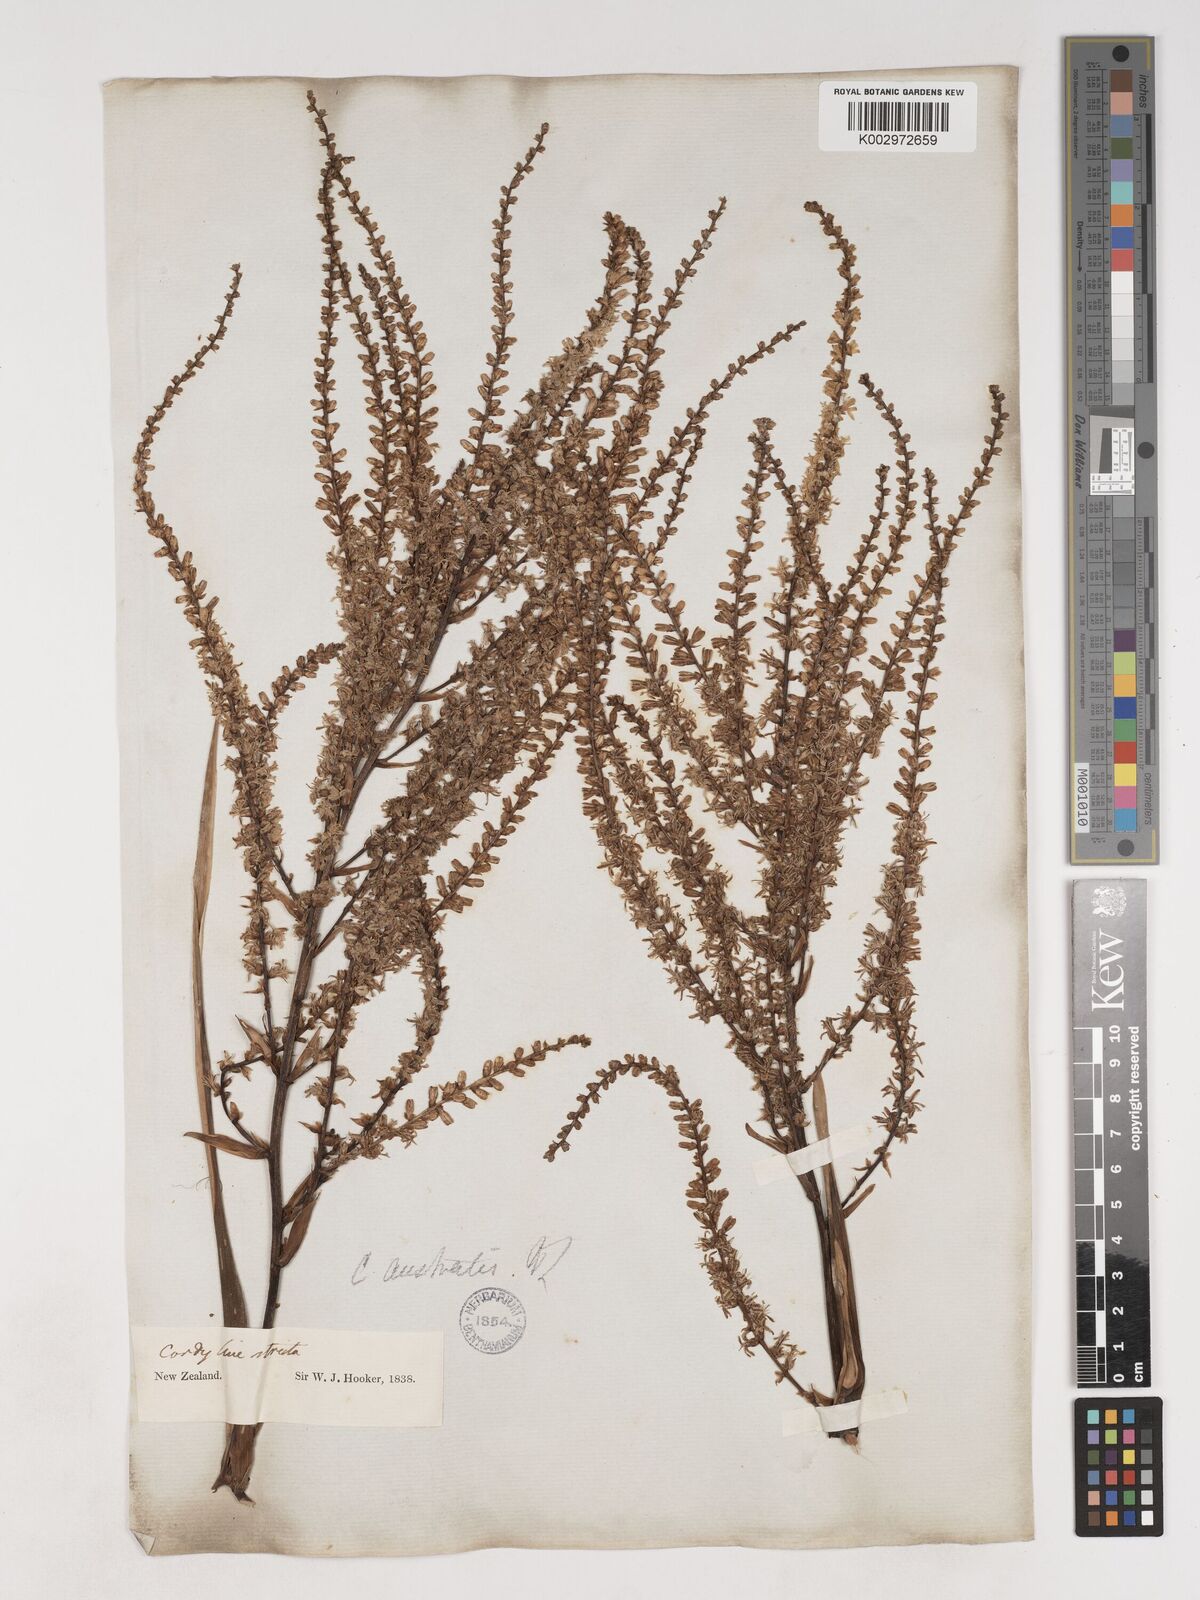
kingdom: Plantae
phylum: Tracheophyta
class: Liliopsida
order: Asparagales
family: Asparagaceae
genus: Cordyline
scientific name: Cordyline australis
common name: Cabbage-palm
